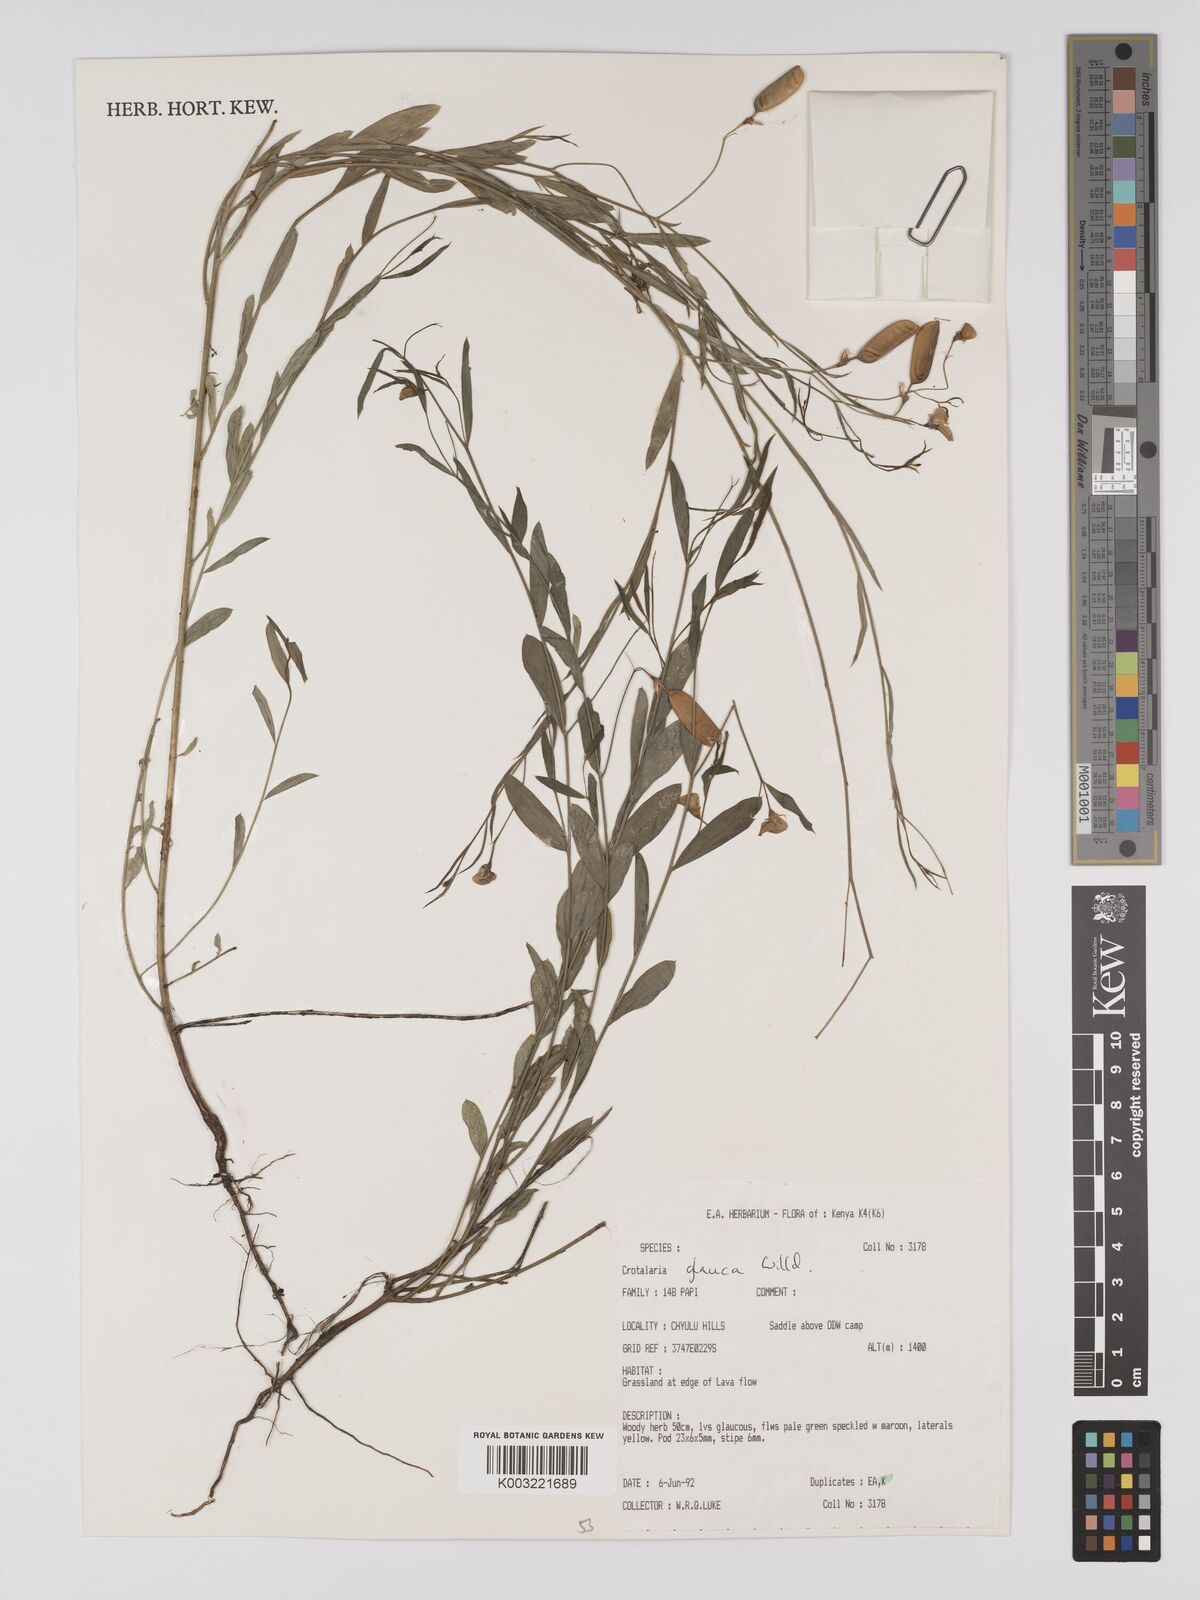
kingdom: Plantae
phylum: Tracheophyta
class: Magnoliopsida
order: Fabales
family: Fabaceae
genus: Crotalaria
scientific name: Crotalaria glauca
